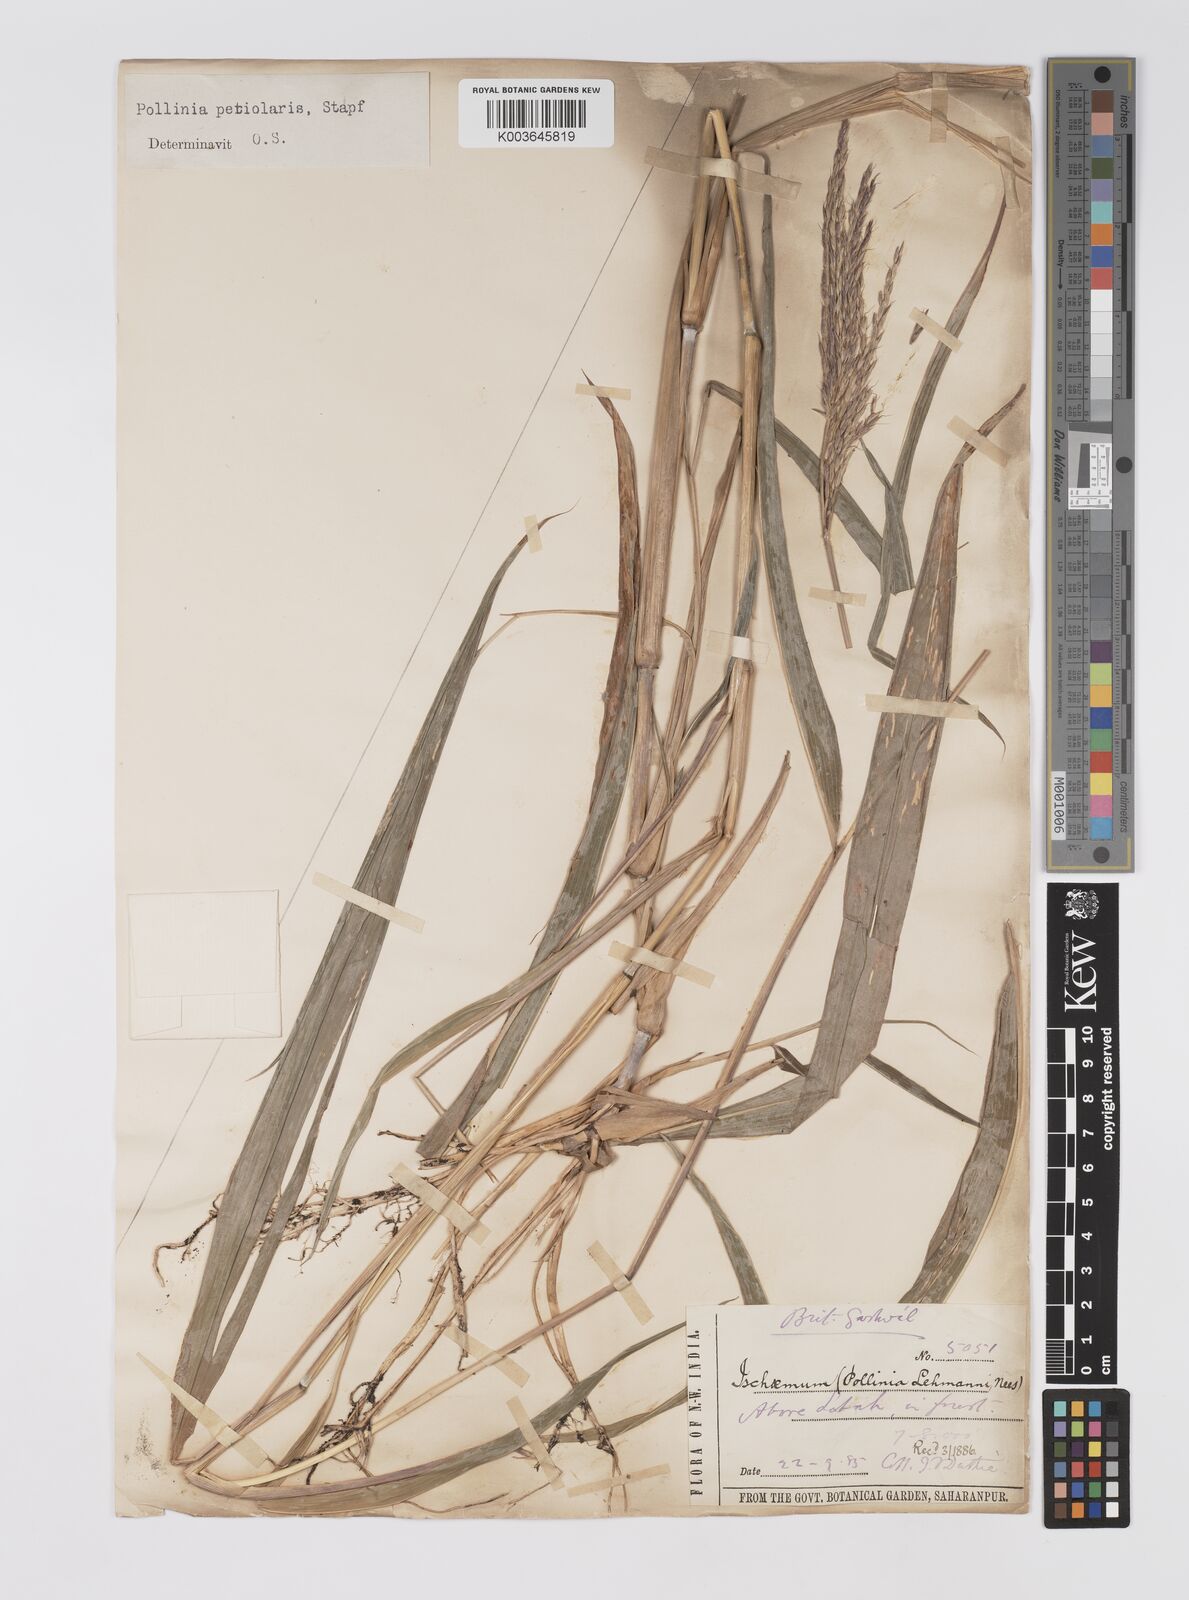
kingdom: Plantae
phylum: Tracheophyta
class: Liliopsida
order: Poales
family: Poaceae
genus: Microstegium
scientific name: Microstegium petiolare
